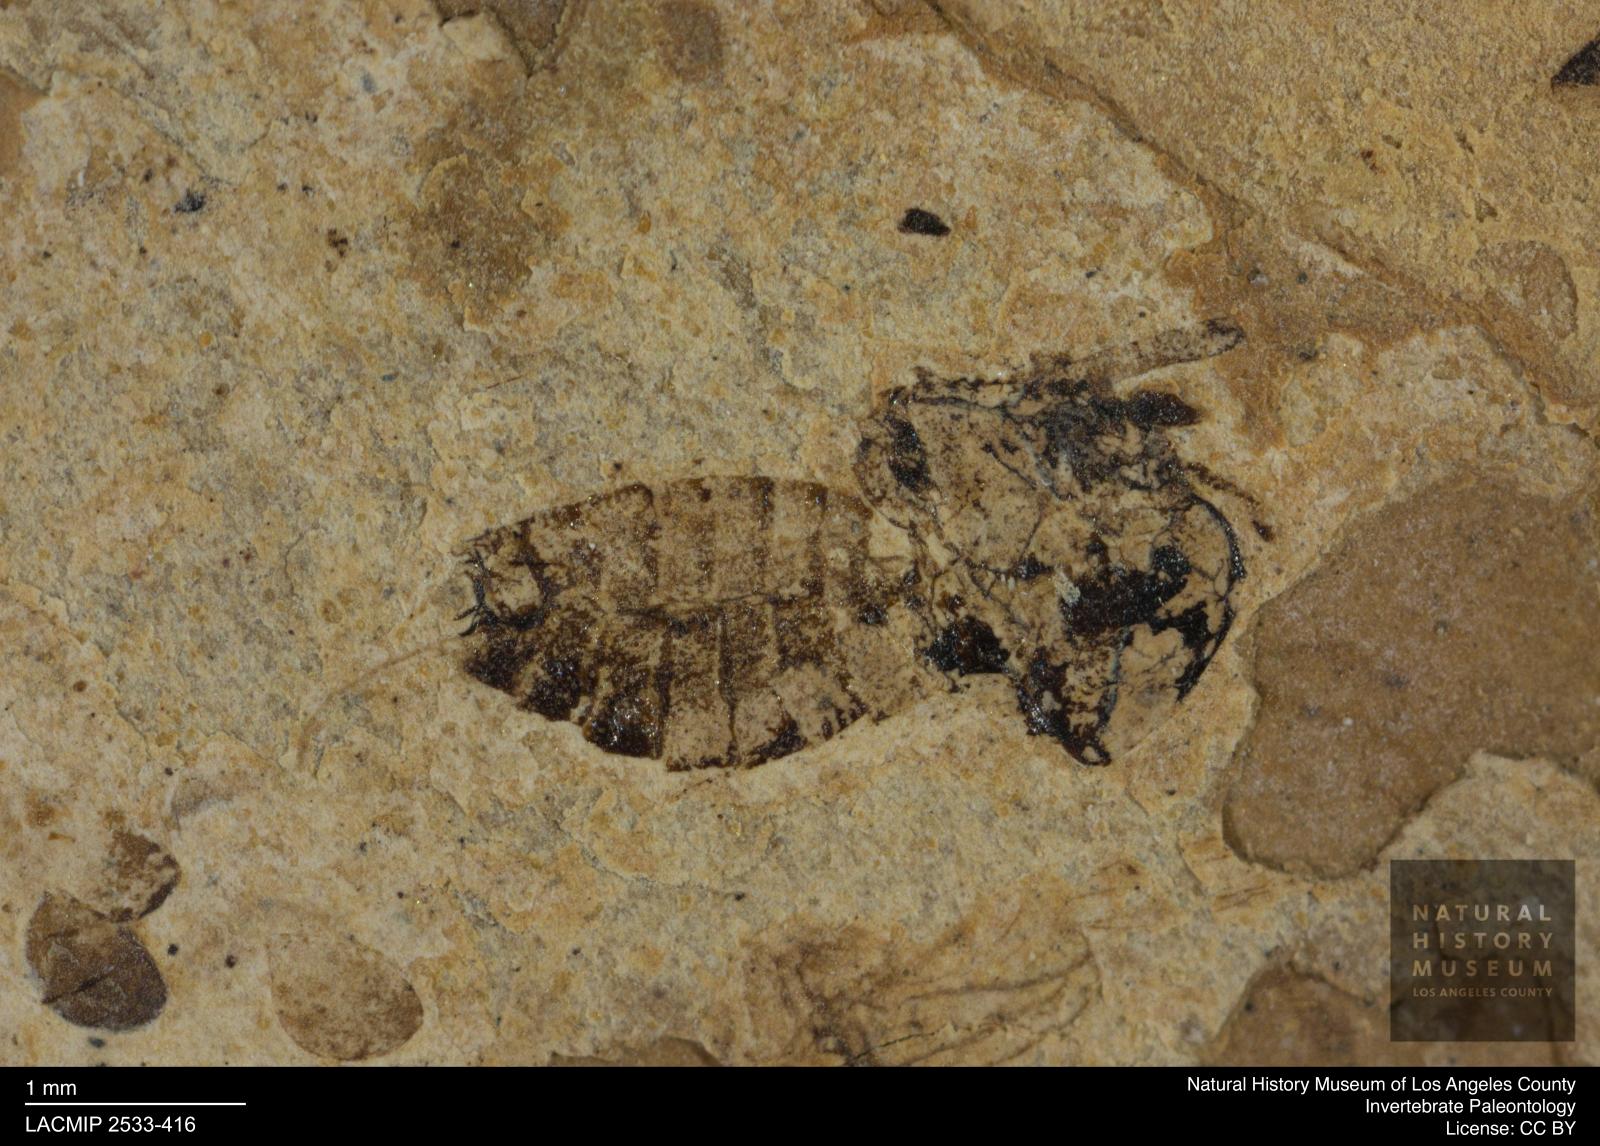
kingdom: Animalia
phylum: Arthropoda
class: Insecta
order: Diptera
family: Chironomidae
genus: Tanypus
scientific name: Tanypus fuscus
